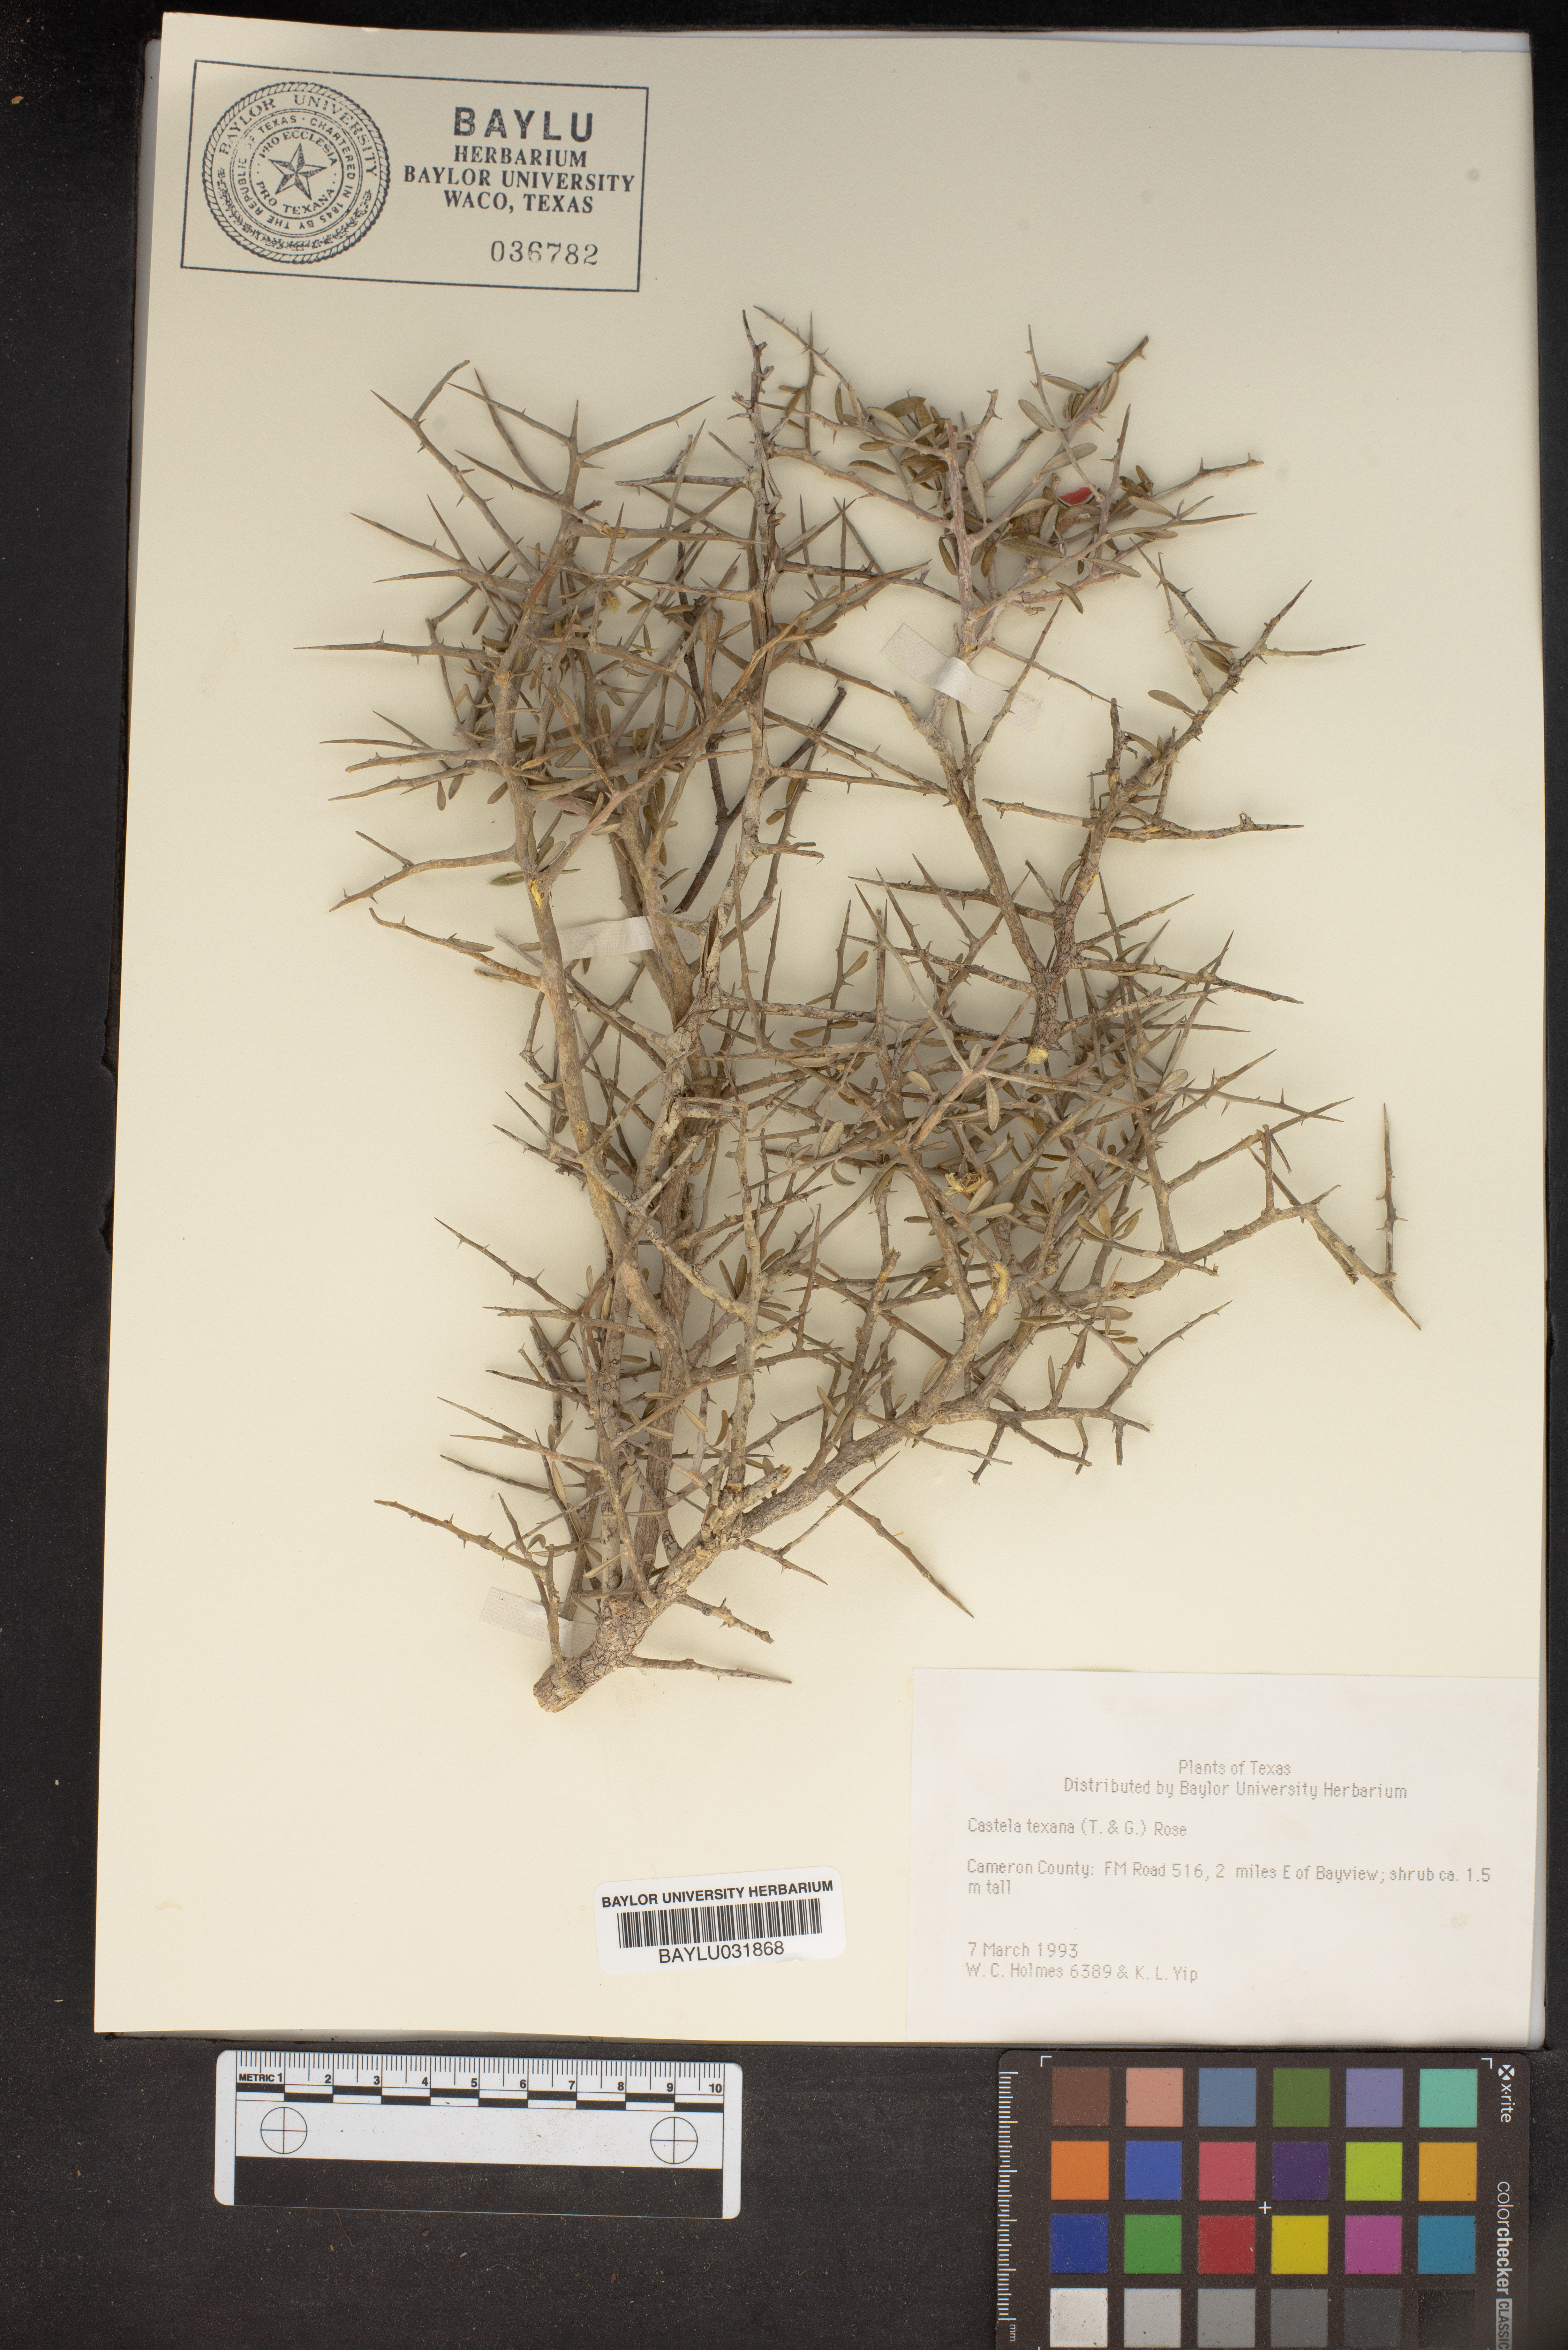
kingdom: Plantae
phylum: Tracheophyta
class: Magnoliopsida
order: Sapindales
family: Simaroubaceae
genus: Castela
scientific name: Castela tortuosa
